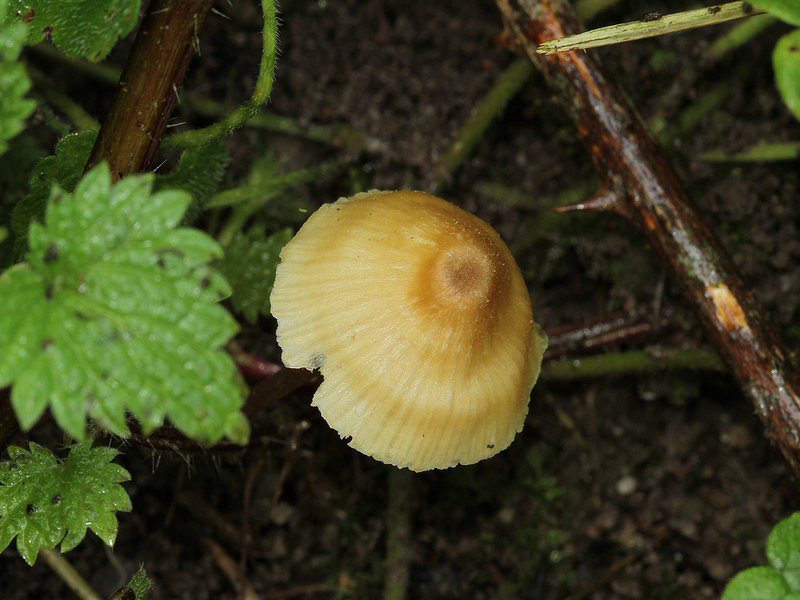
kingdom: Fungi
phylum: Basidiomycota
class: Agaricomycetes
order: Agaricales
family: Entolomataceae
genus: Entoloma
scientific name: Entoloma pleopodium
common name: duftende rødblad
